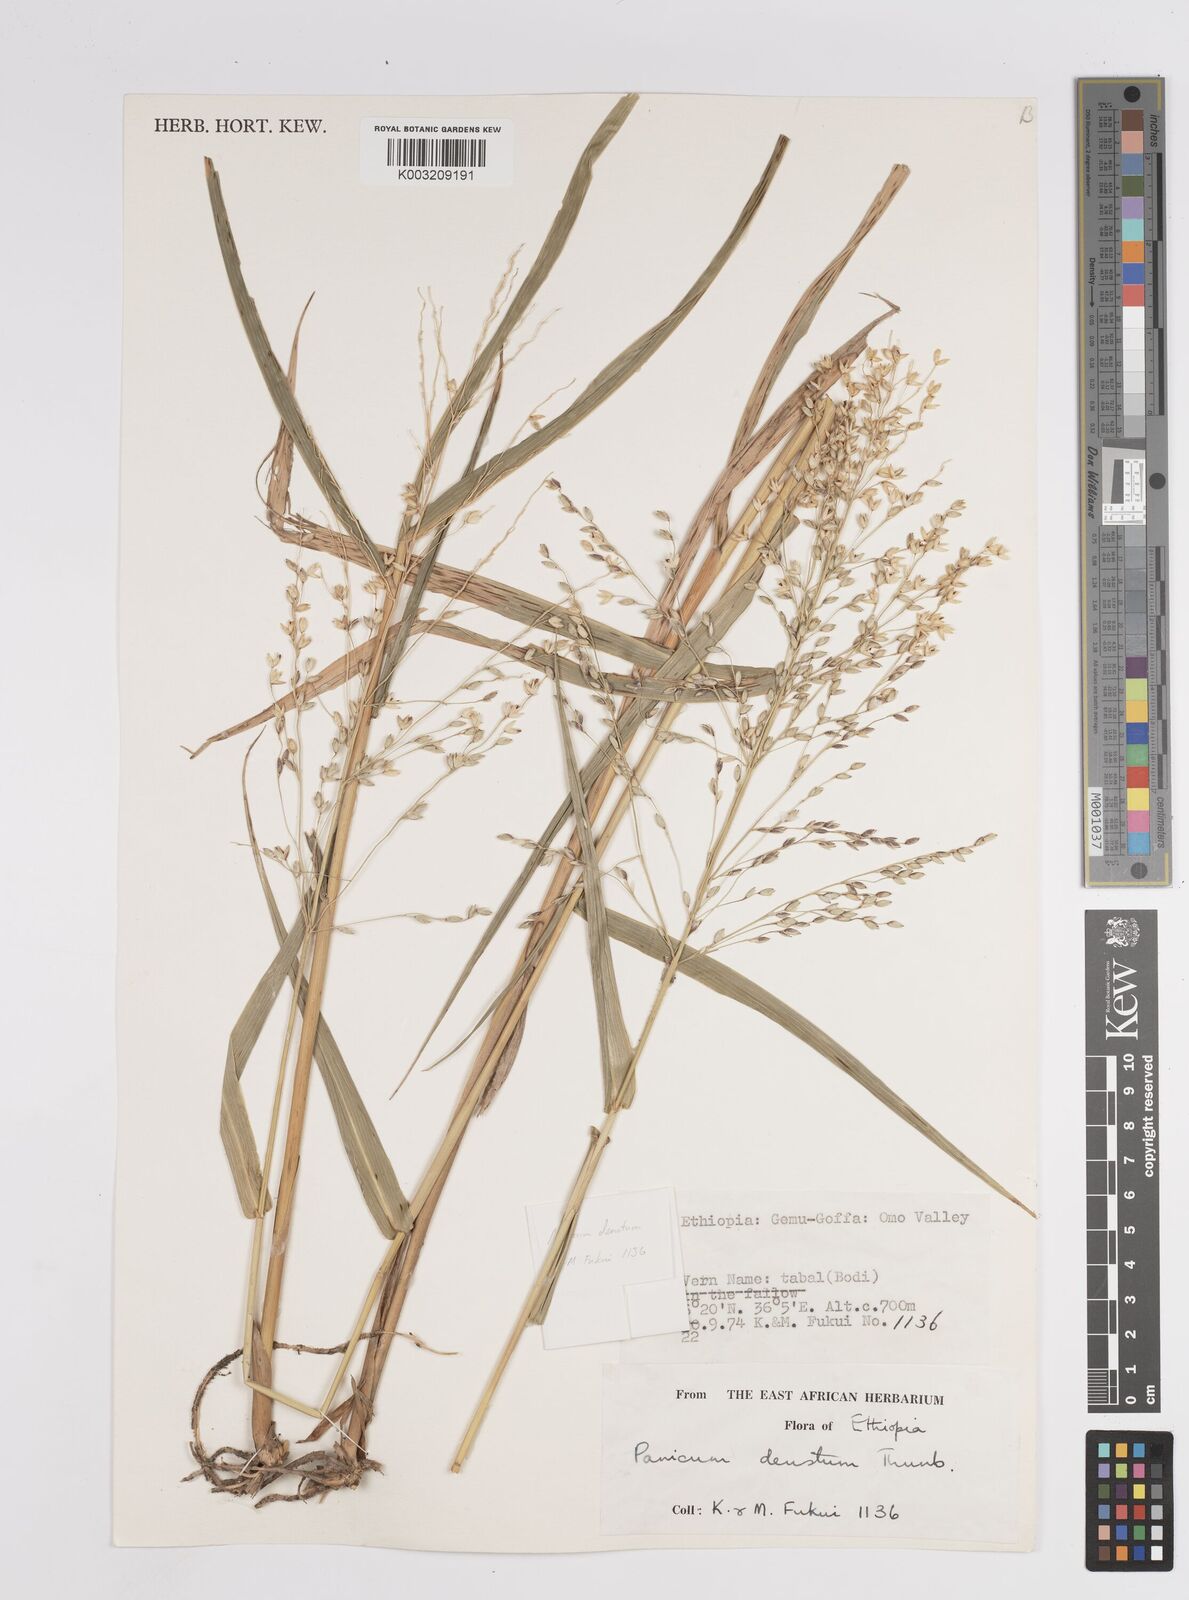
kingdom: Plantae
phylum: Tracheophyta
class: Liliopsida
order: Poales
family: Poaceae
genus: Panicum
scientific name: Panicum
